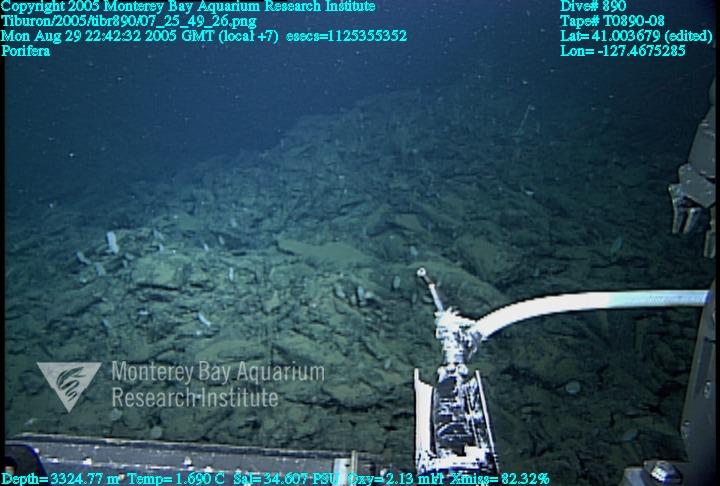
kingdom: Animalia
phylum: Porifera
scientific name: Porifera
